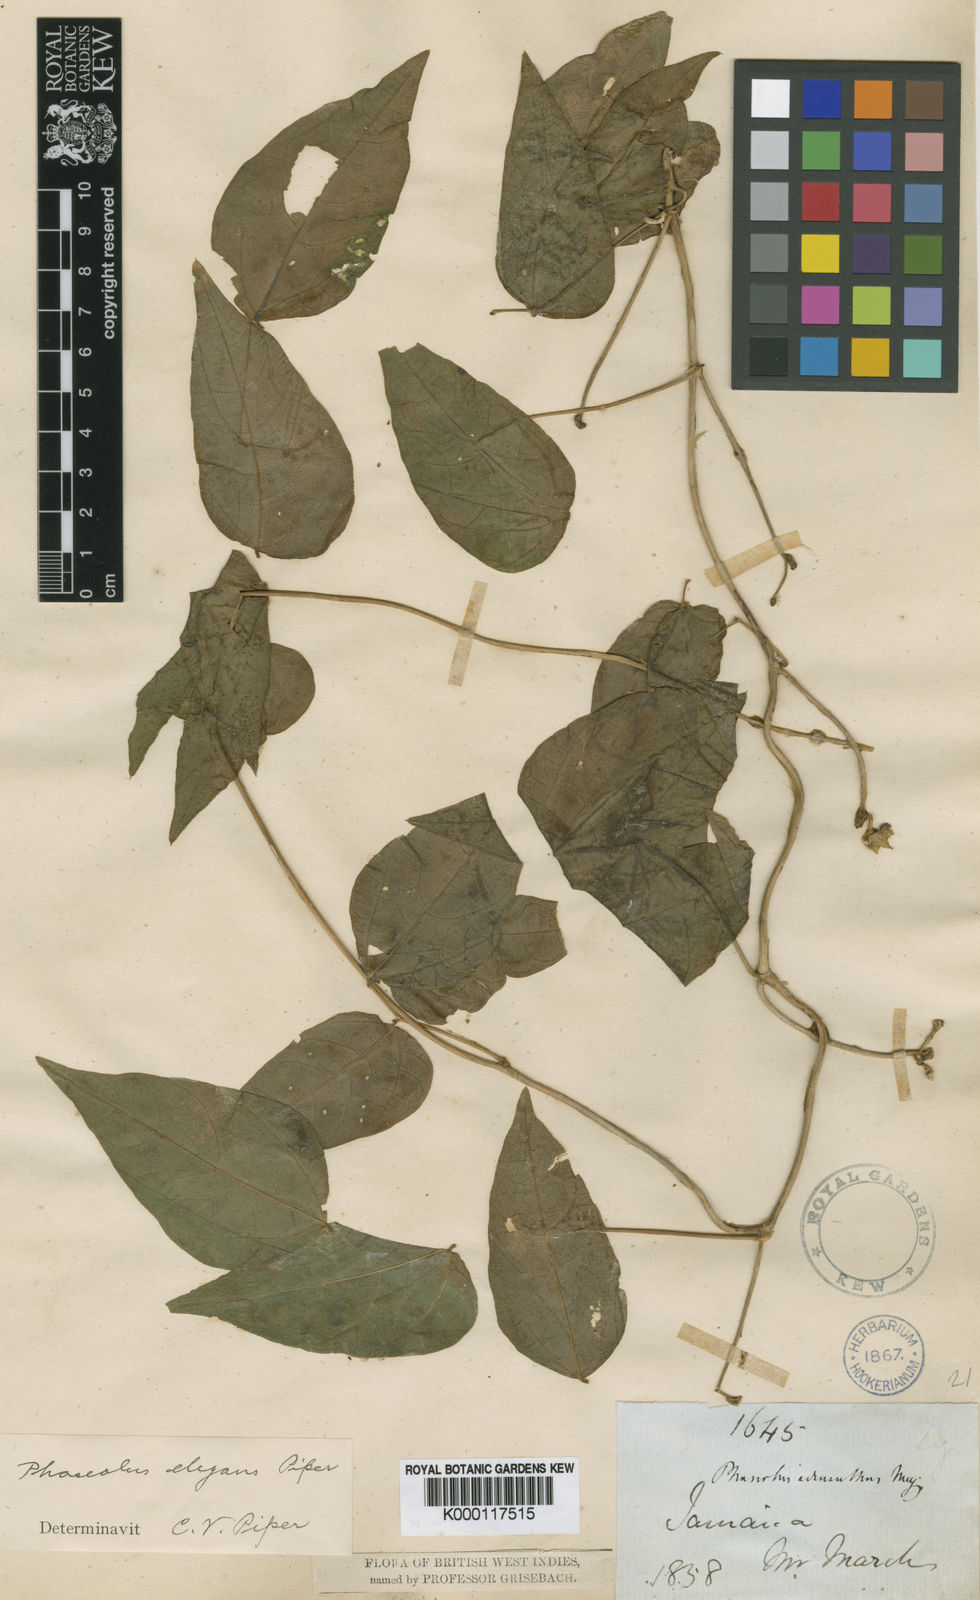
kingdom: Plantae
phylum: Tracheophyta
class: Magnoliopsida
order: Fabales
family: Fabaceae
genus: Sigmoidotropis
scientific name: Sigmoidotropis elegans
